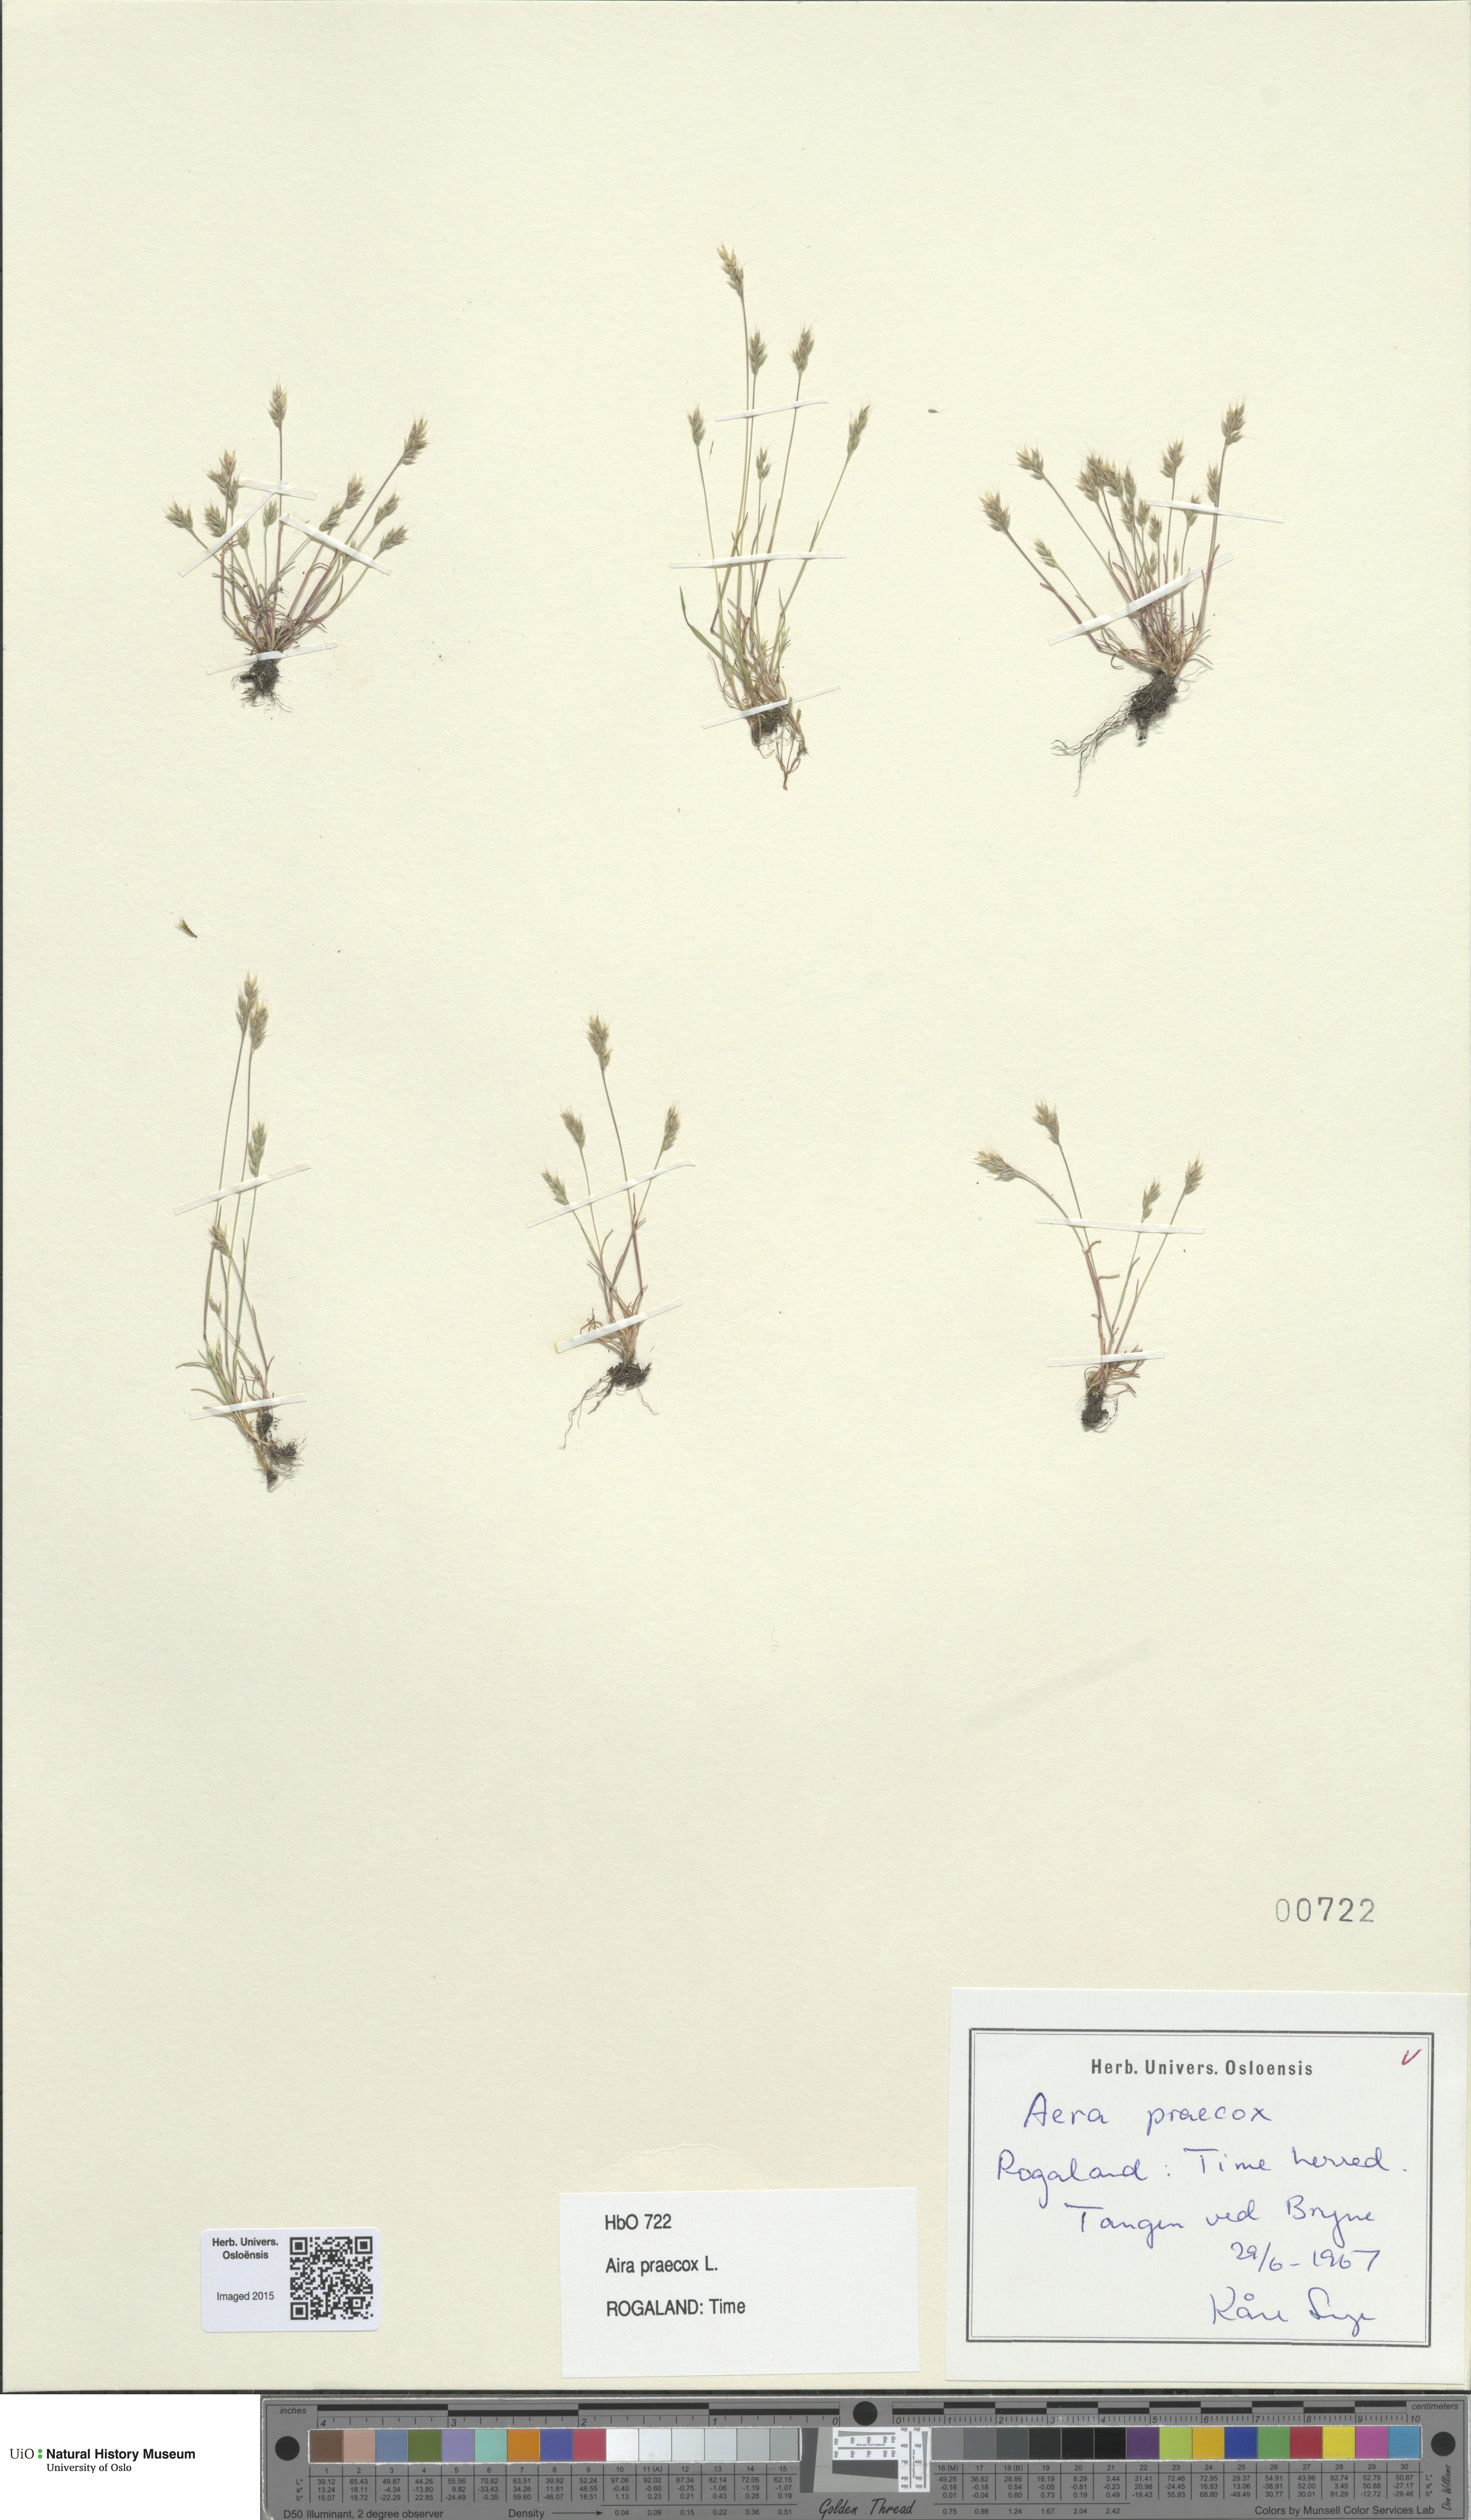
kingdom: Plantae
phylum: Tracheophyta
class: Liliopsida
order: Poales
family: Poaceae
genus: Aira
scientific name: Aira praecox
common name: Early hair-grass
